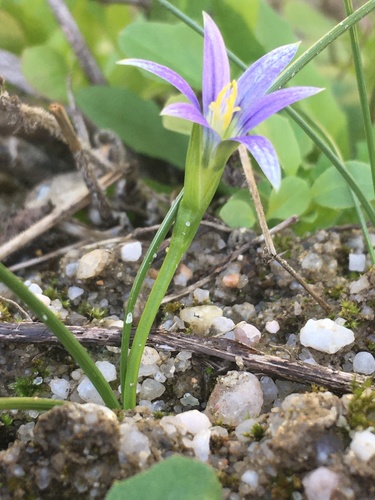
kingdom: Plantae
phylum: Tracheophyta
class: Liliopsida
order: Asparagales
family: Iridaceae
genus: Romulea
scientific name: Romulea ramiflora
